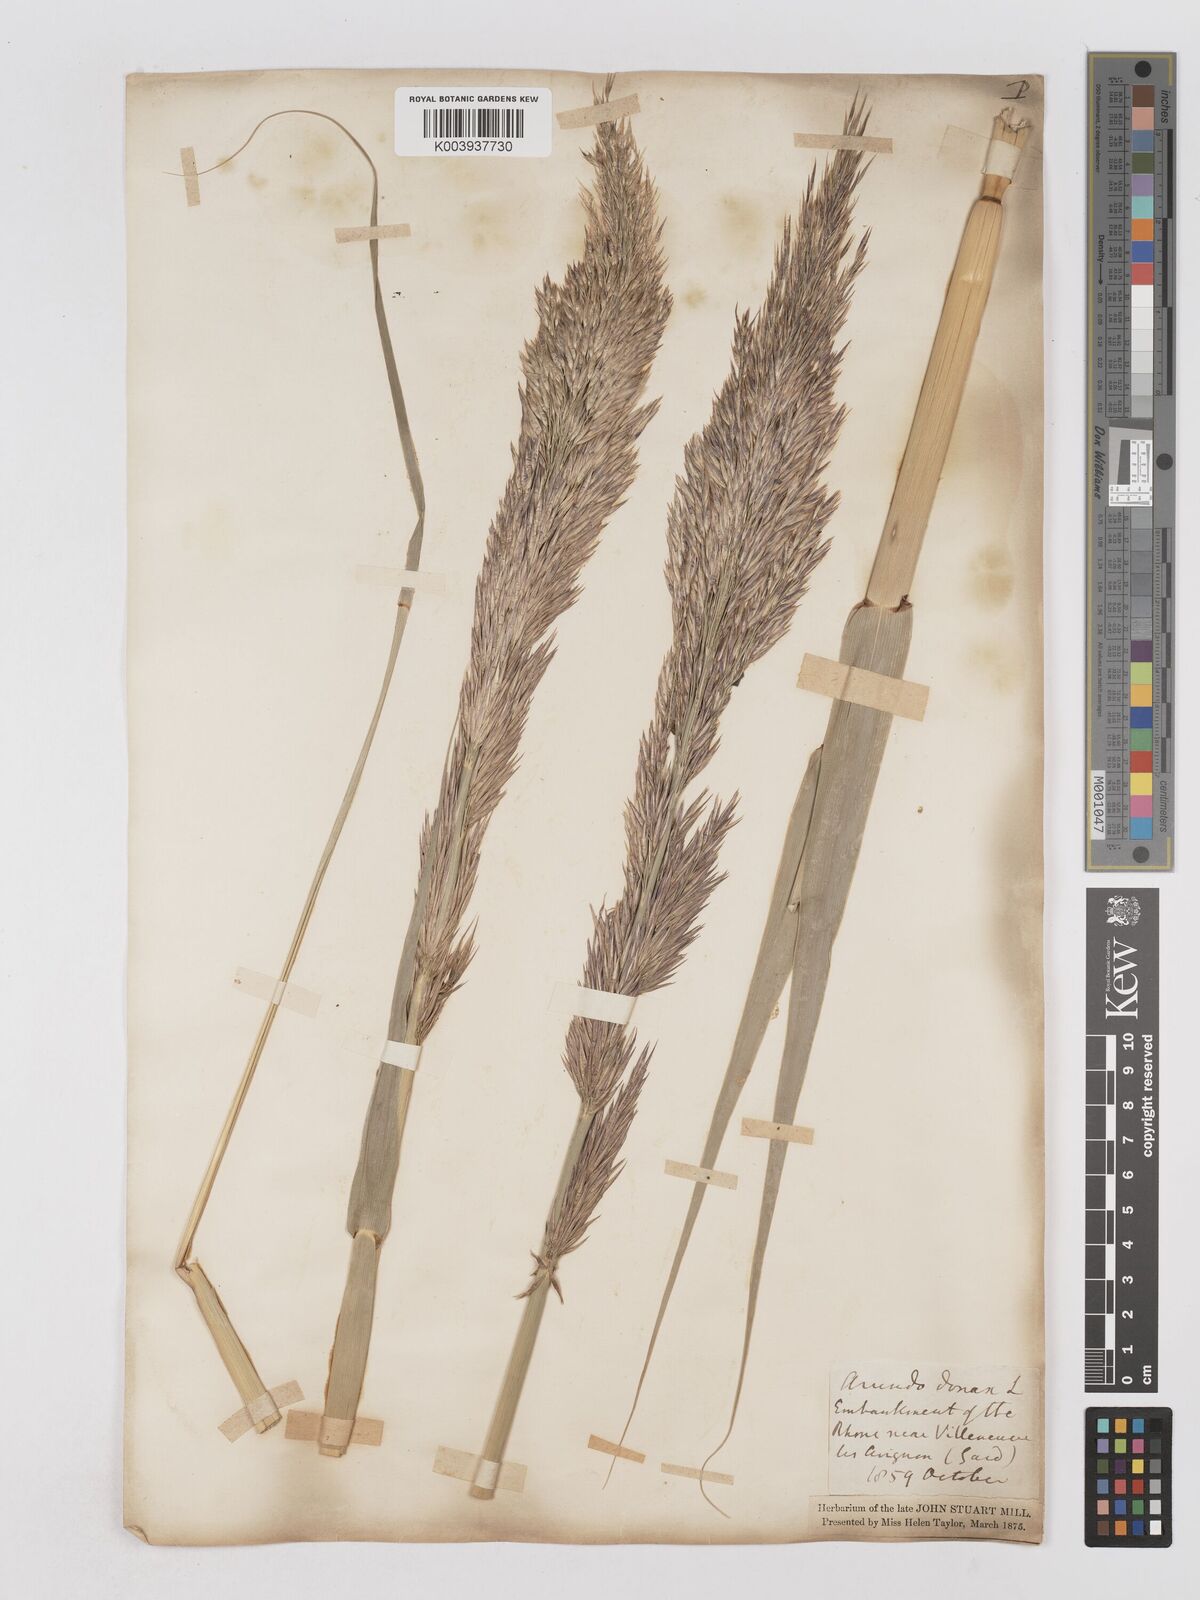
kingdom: Plantae
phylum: Tracheophyta
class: Liliopsida
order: Poales
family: Poaceae
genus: Arundo
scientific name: Arundo donax
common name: Giant reed
